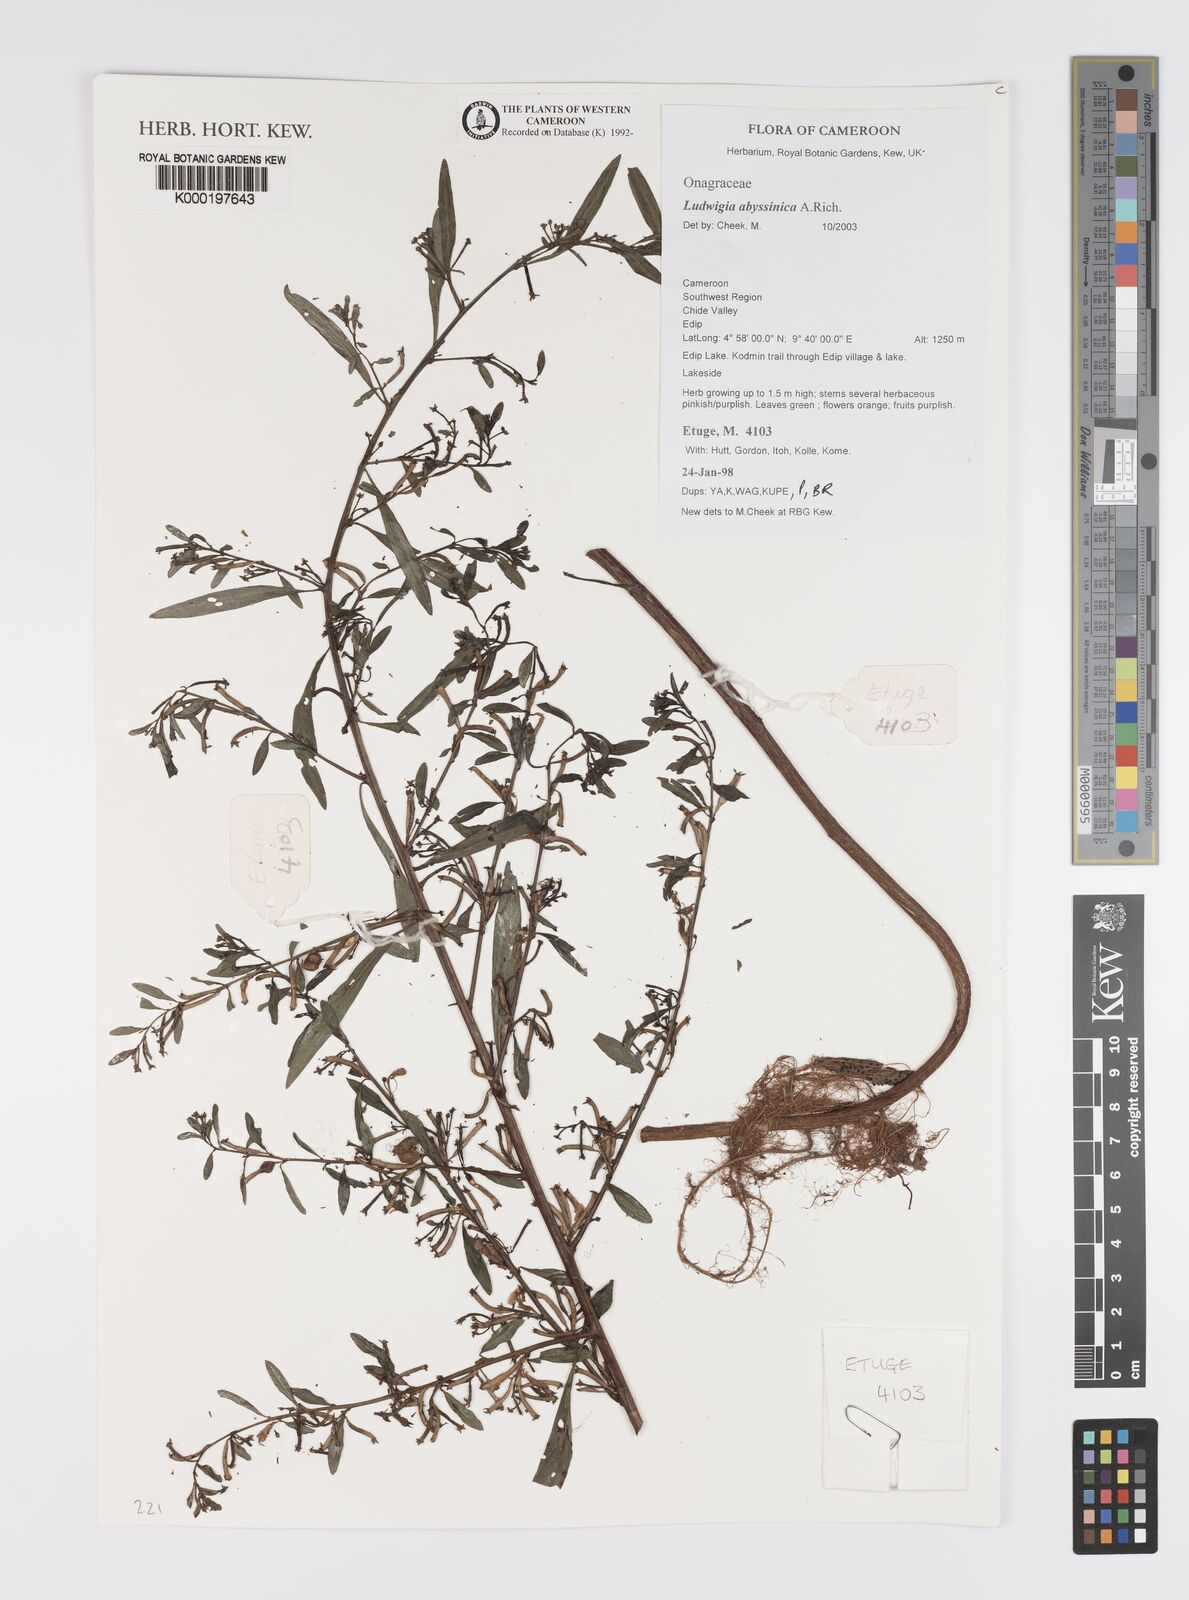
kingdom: Plantae
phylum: Tracheophyta
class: Magnoliopsida
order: Myrtales
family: Onagraceae
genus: Ludwigia
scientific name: Ludwigia abyssinica
